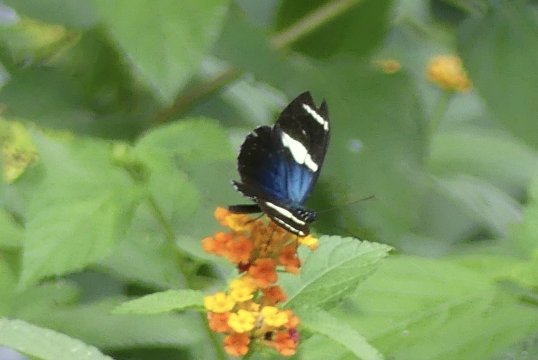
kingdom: Animalia
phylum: Arthropoda
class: Insecta
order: Lepidoptera
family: Nymphalidae
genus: Heliconius
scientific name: Heliconius sara
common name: Sara Longwing
